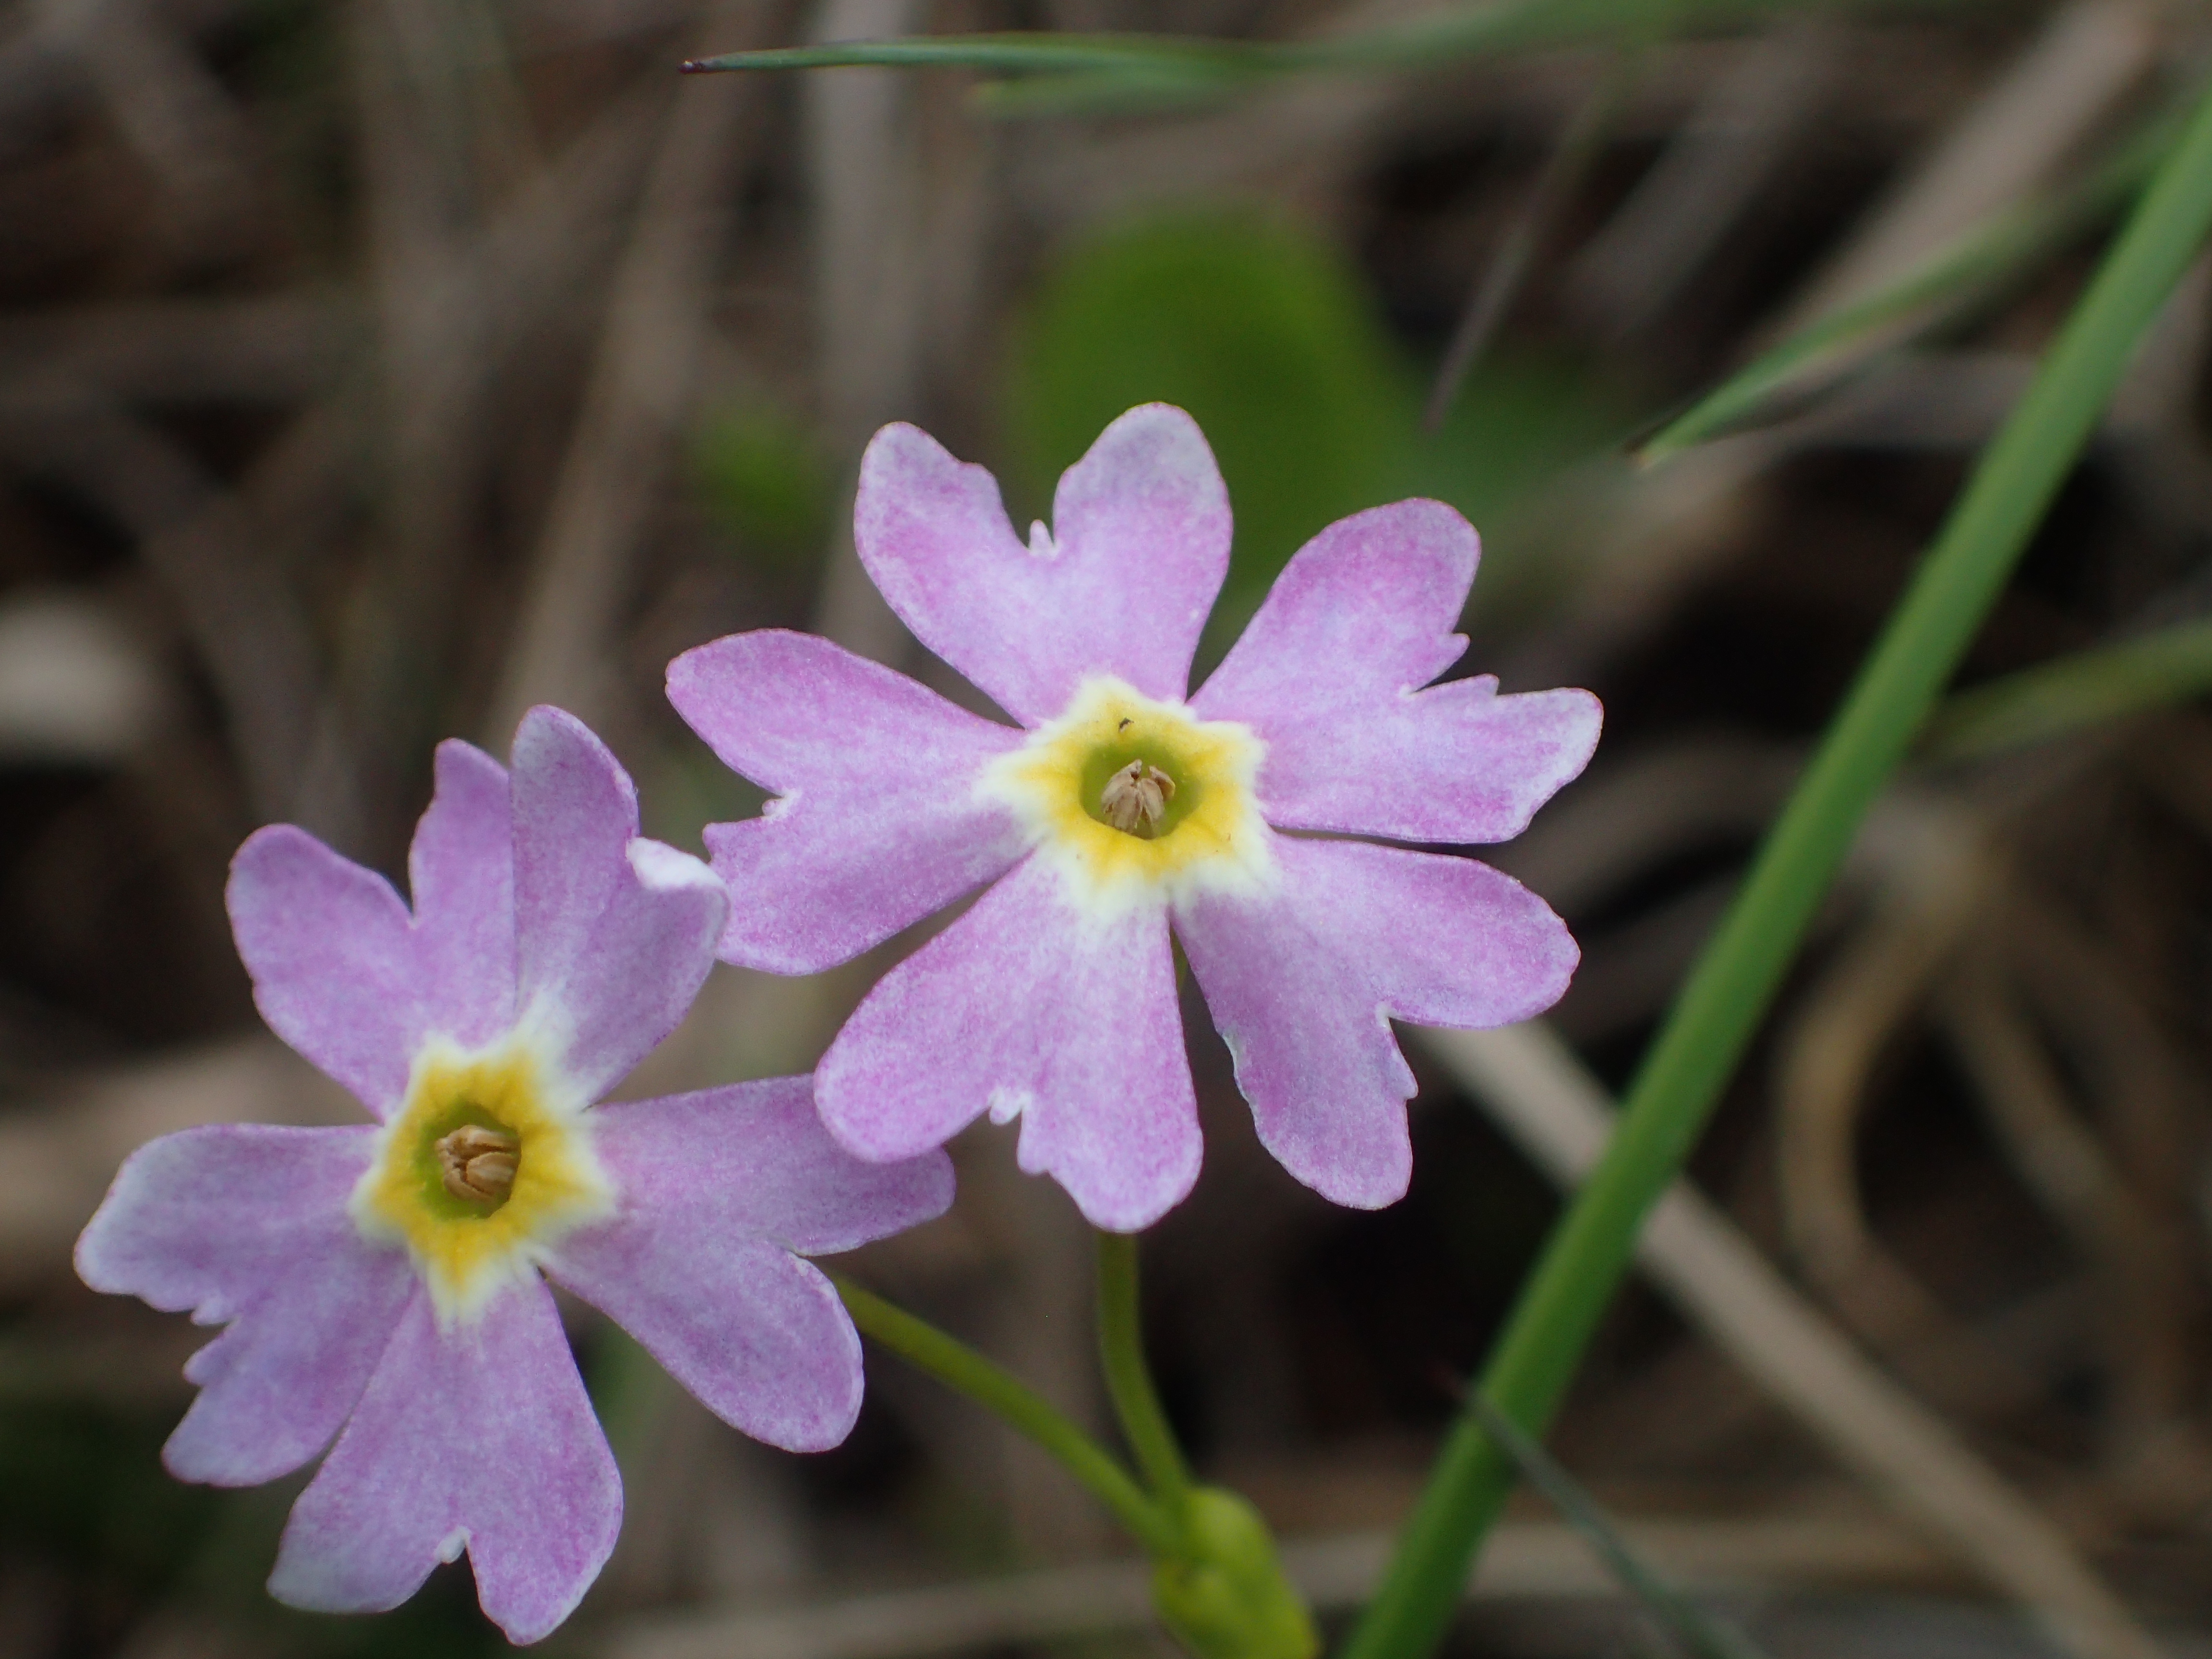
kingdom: Plantae
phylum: Tracheophyta
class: Magnoliopsida
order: Ericales
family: Primulaceae
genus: Primula
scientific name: Primula nutans
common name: Siberian primrose
